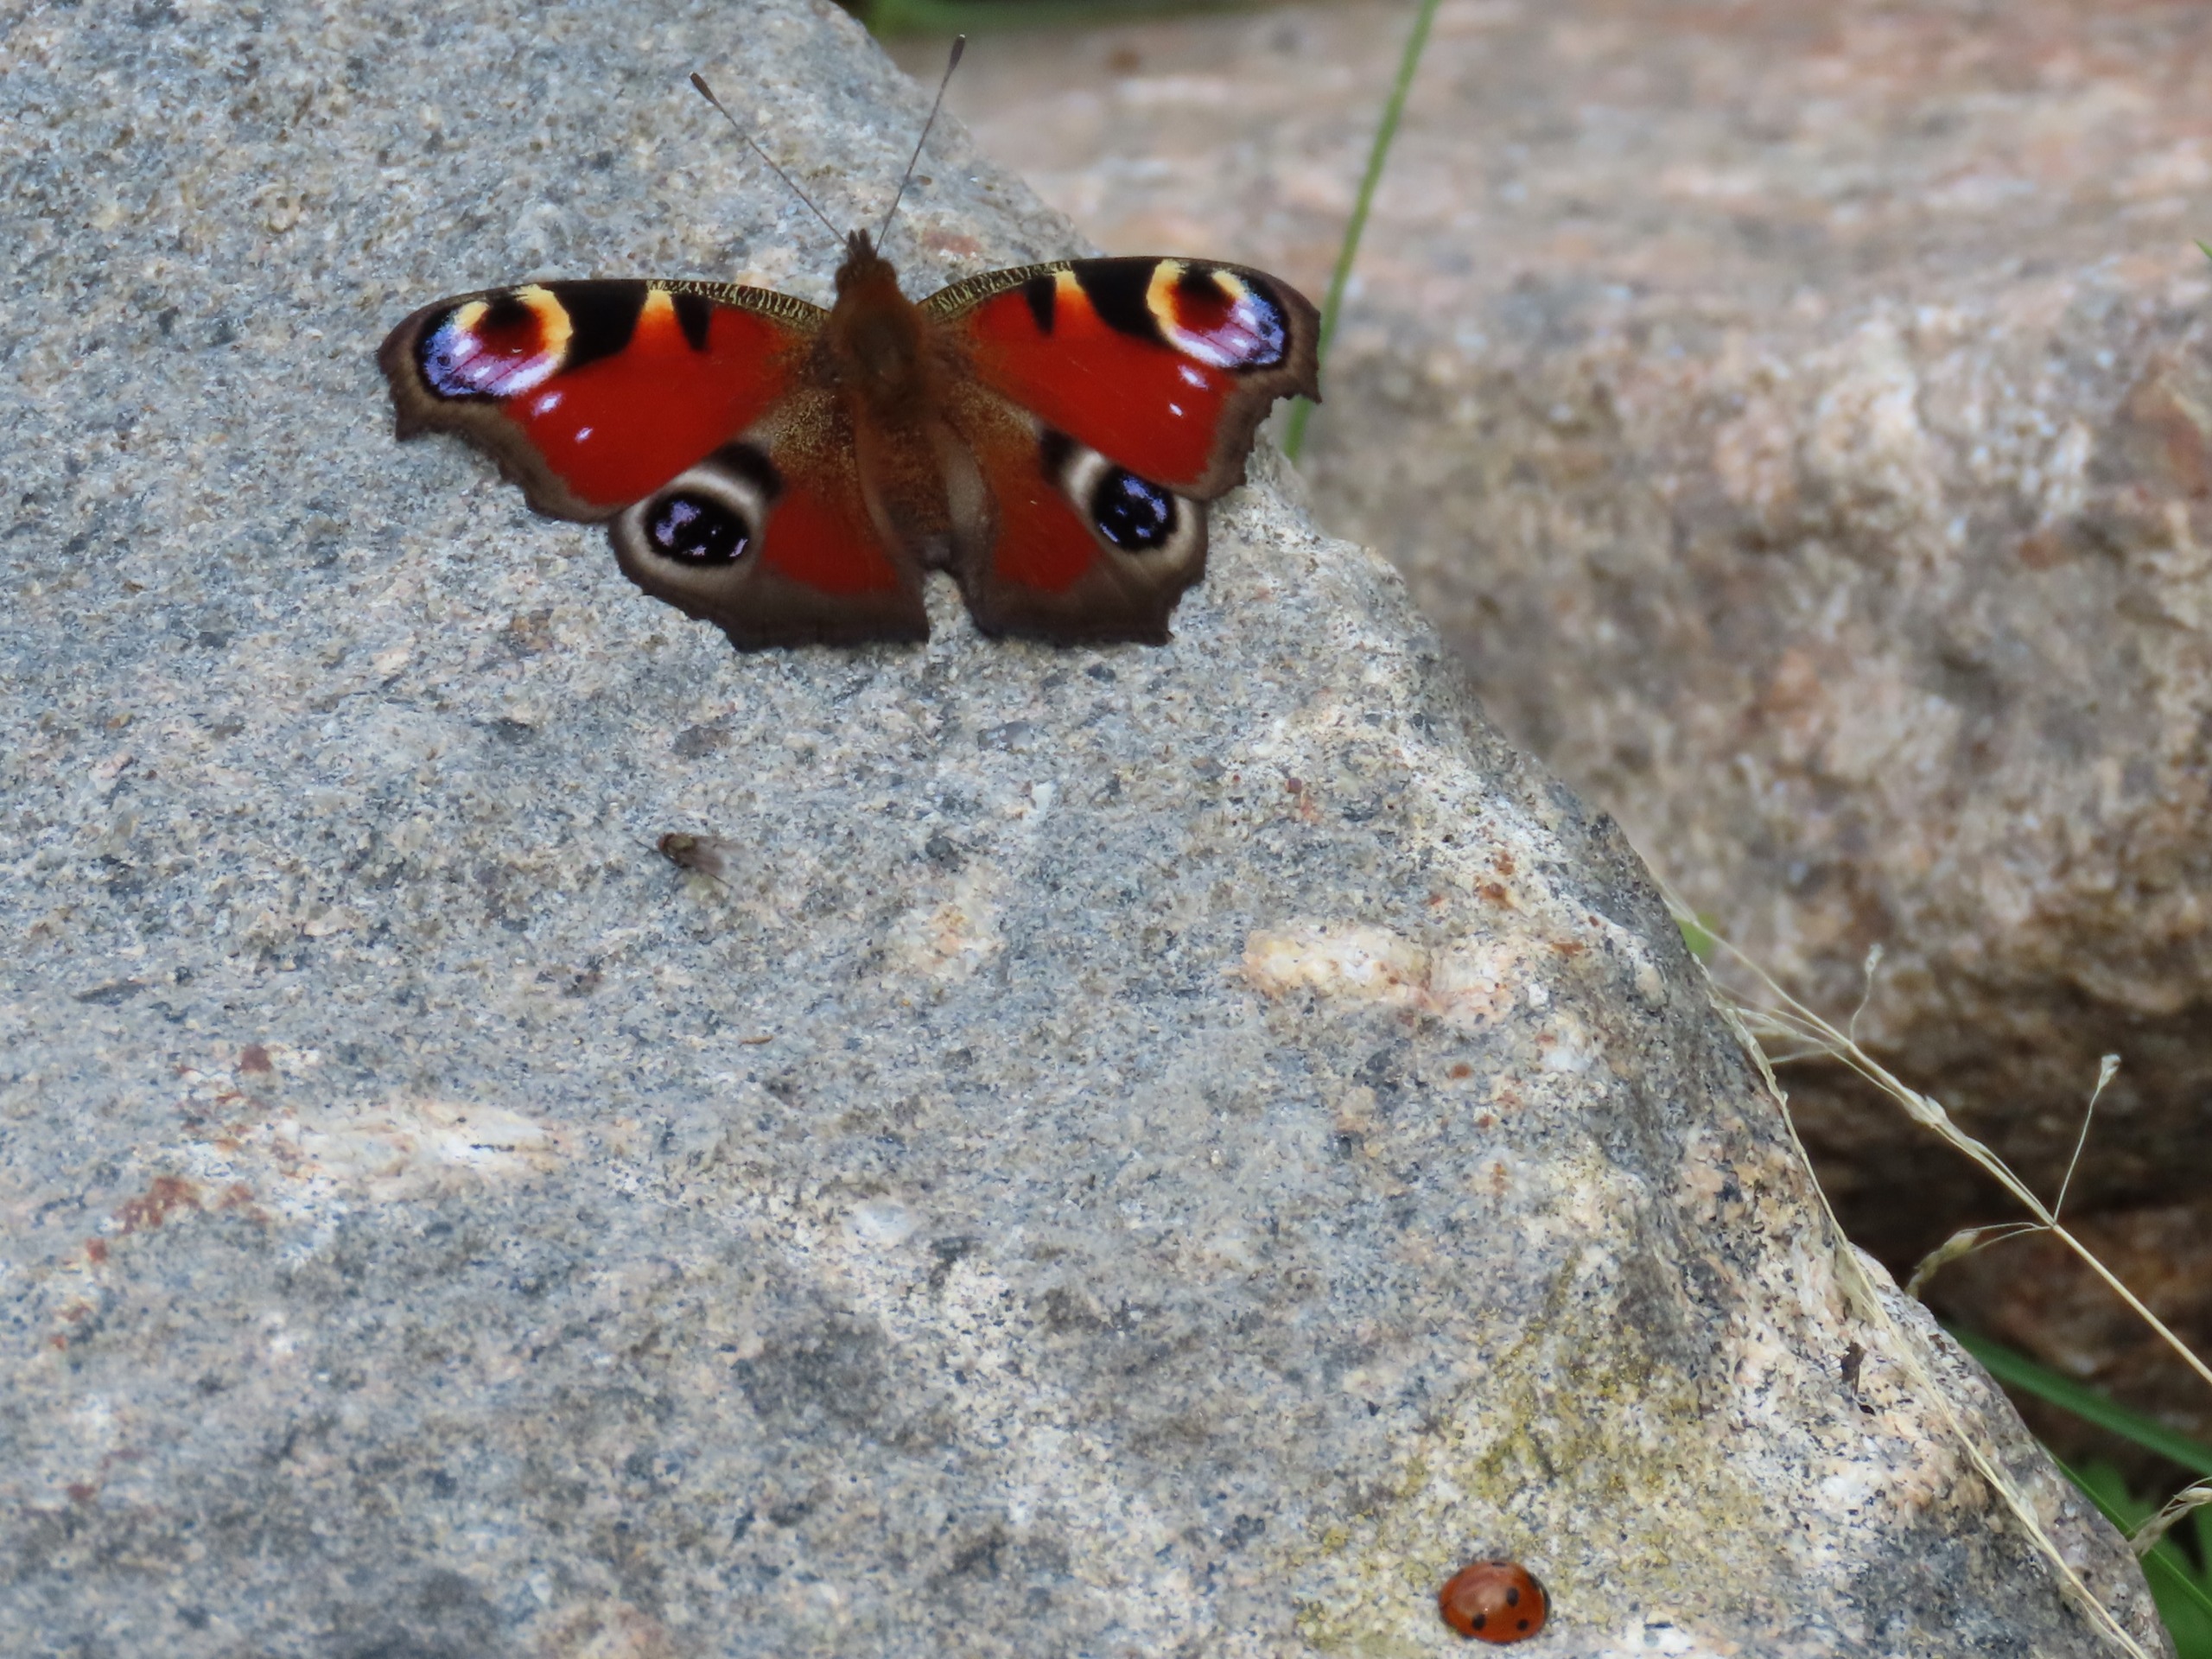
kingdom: Animalia
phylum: Arthropoda
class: Insecta
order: Lepidoptera
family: Nymphalidae
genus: Aglais
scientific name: Aglais io
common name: Dagpåfugleøje
